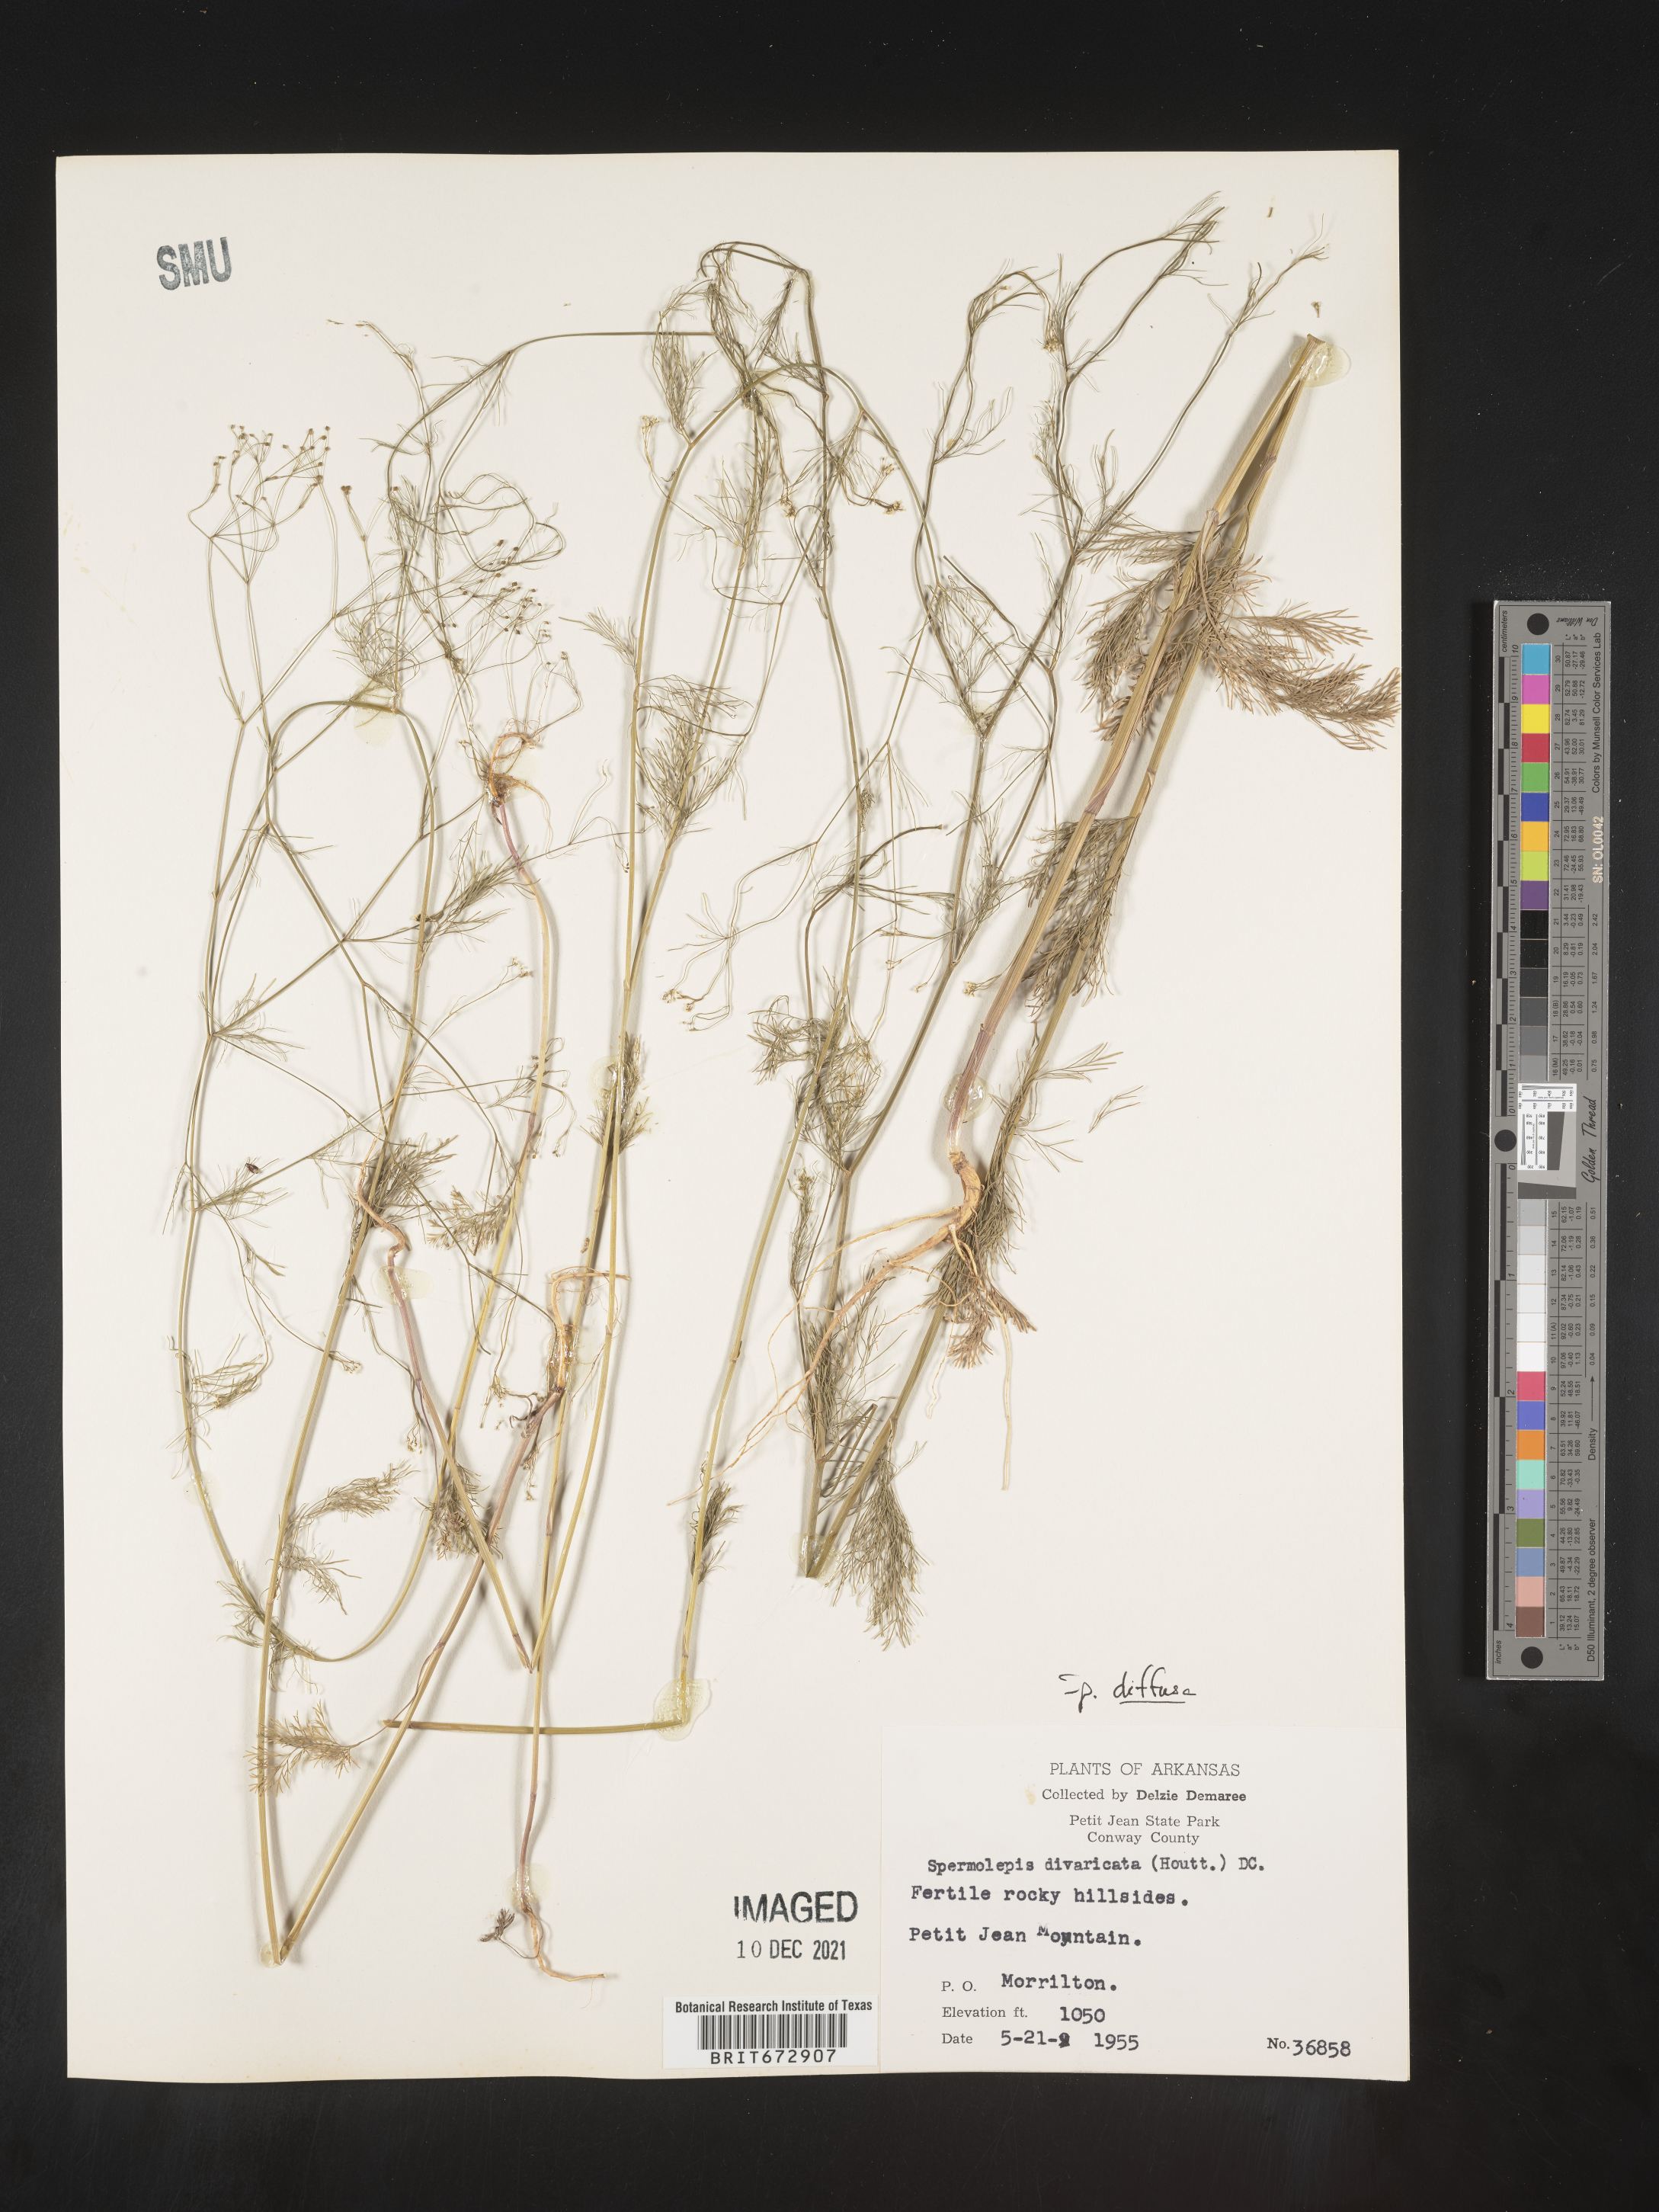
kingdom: Plantae
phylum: Tracheophyta
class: Magnoliopsida
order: Apiales
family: Apiaceae
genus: Spermolepis
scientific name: Spermolepis diffusa
